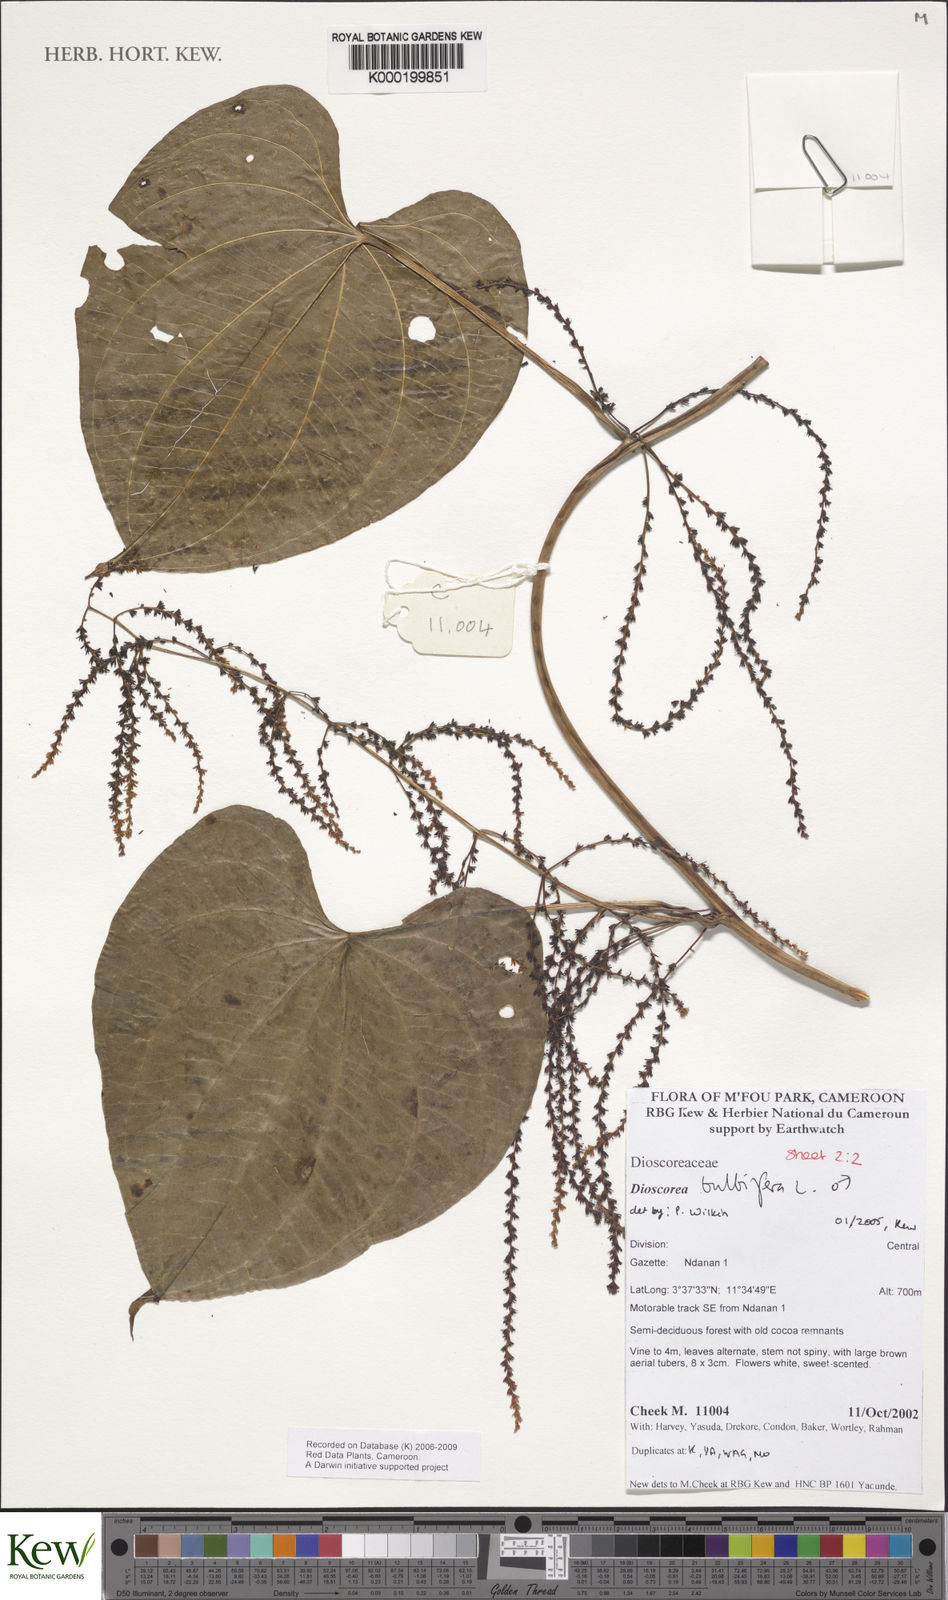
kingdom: Plantae
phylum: Tracheophyta
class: Liliopsida
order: Dioscoreales
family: Dioscoreaceae
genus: Dioscorea
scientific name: Dioscorea bulbifera
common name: Air yam
